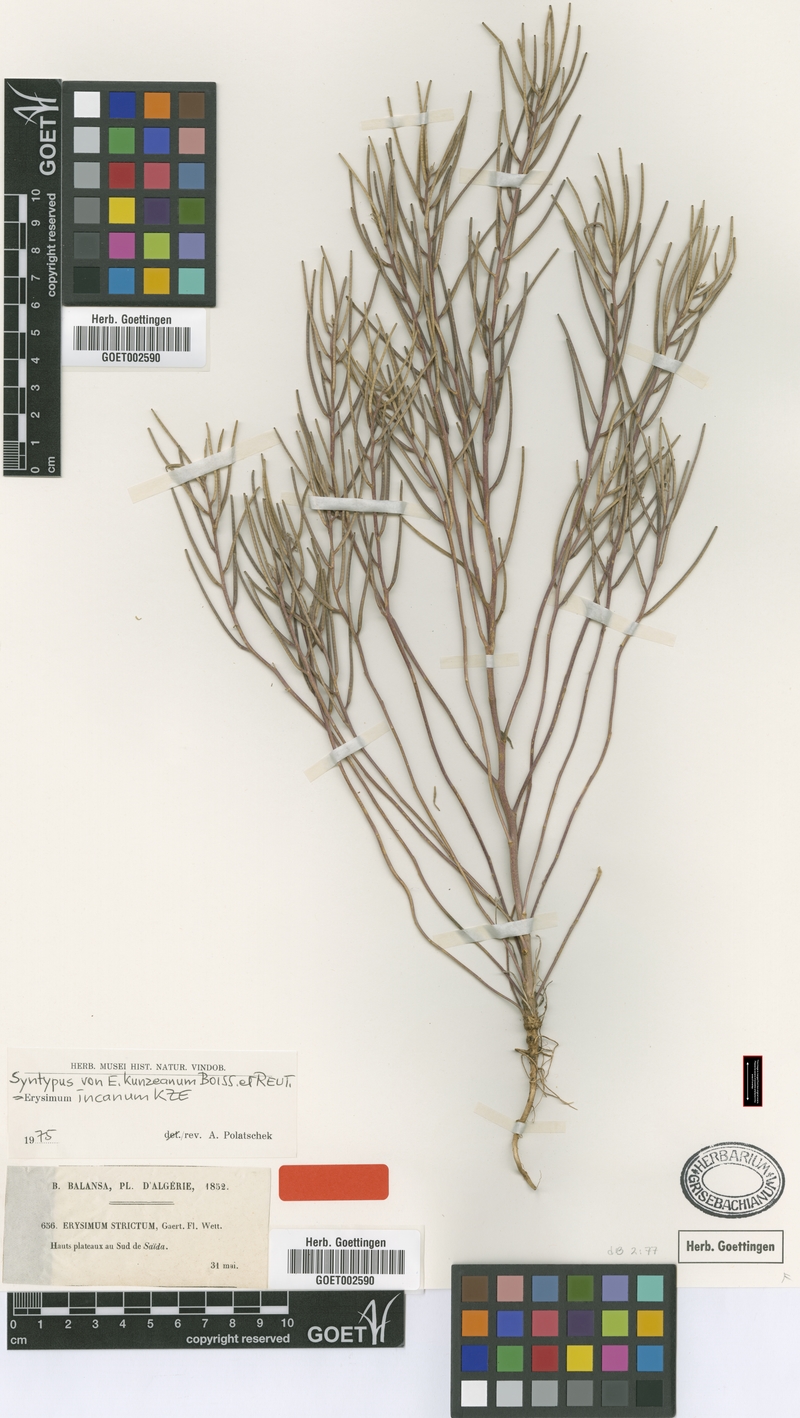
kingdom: Plantae
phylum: Tracheophyta
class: Magnoliopsida
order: Brassicales
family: Brassicaceae
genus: Erysimum
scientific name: Erysimum incanum
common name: Hoary treacle mustard
